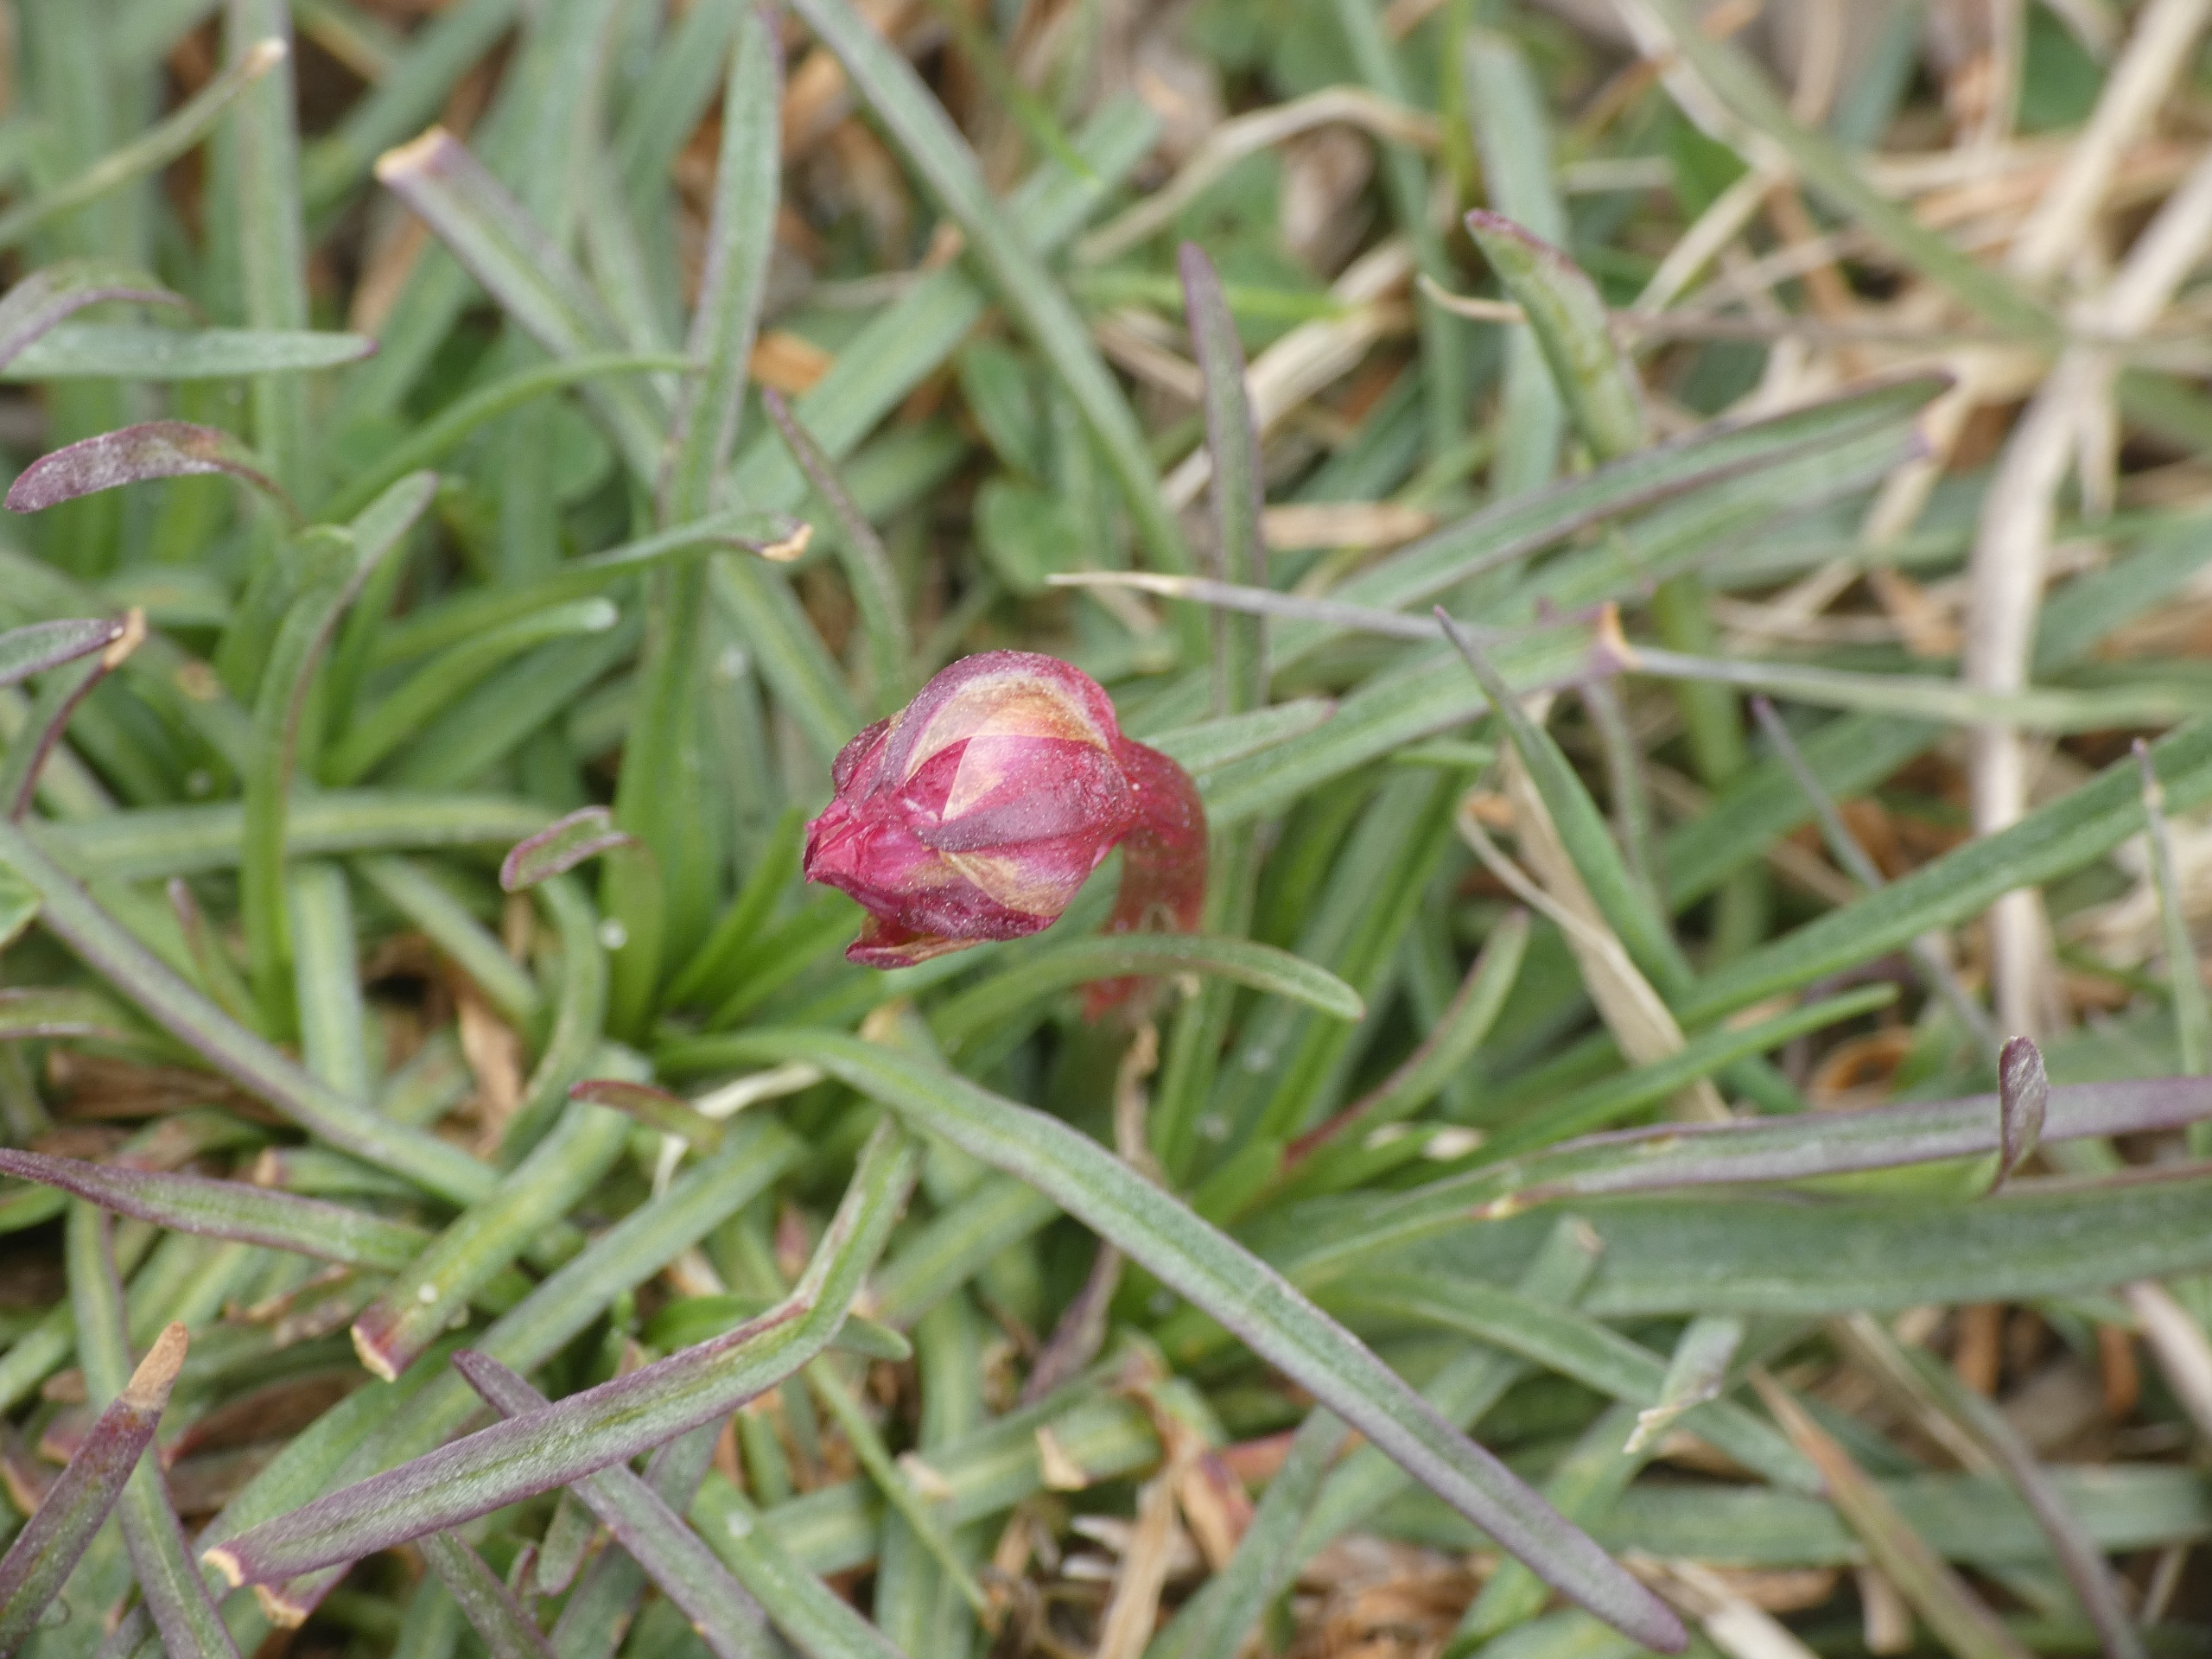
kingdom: Plantae
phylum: Tracheophyta
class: Magnoliopsida
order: Caryophyllales
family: Plumbaginaceae
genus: Armeria
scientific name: Armeria maritima
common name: Engelskgræs
